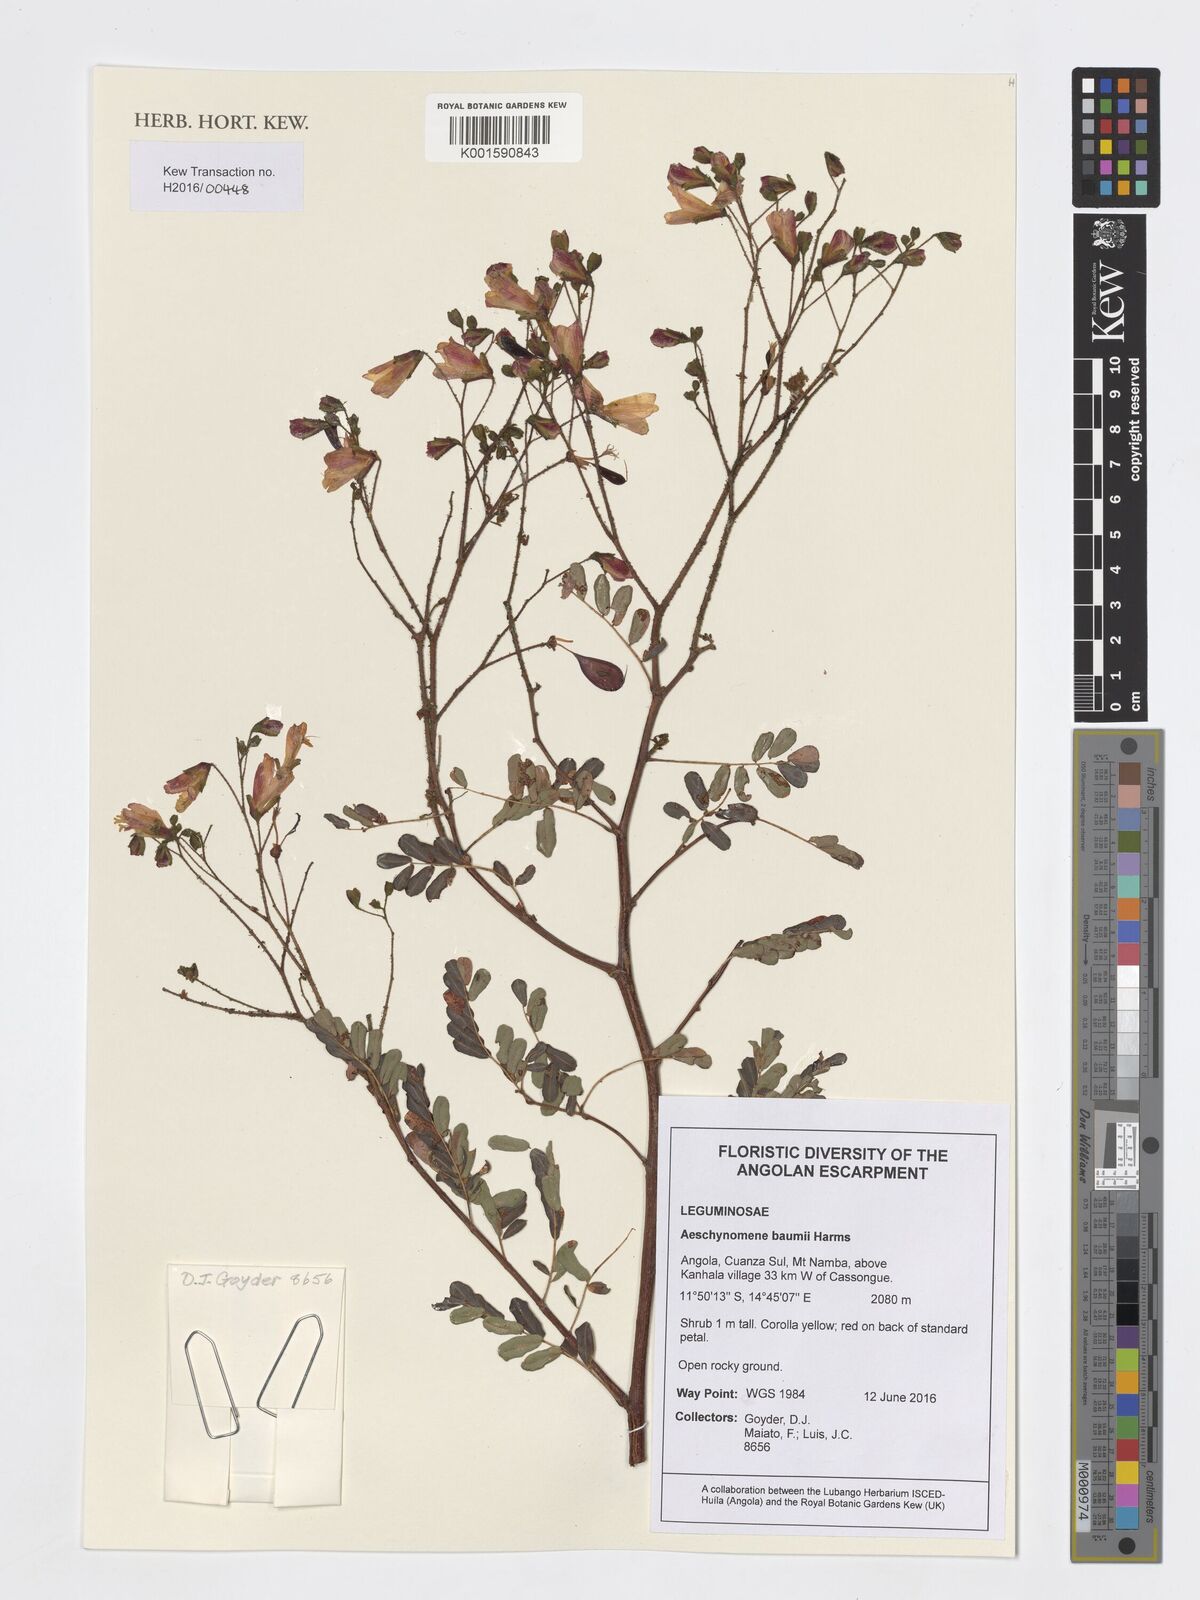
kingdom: Plantae
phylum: Tracheophyta
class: Magnoliopsida
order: Fabales
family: Fabaceae
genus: Aeschynomene
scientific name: Aeschynomene baumii
